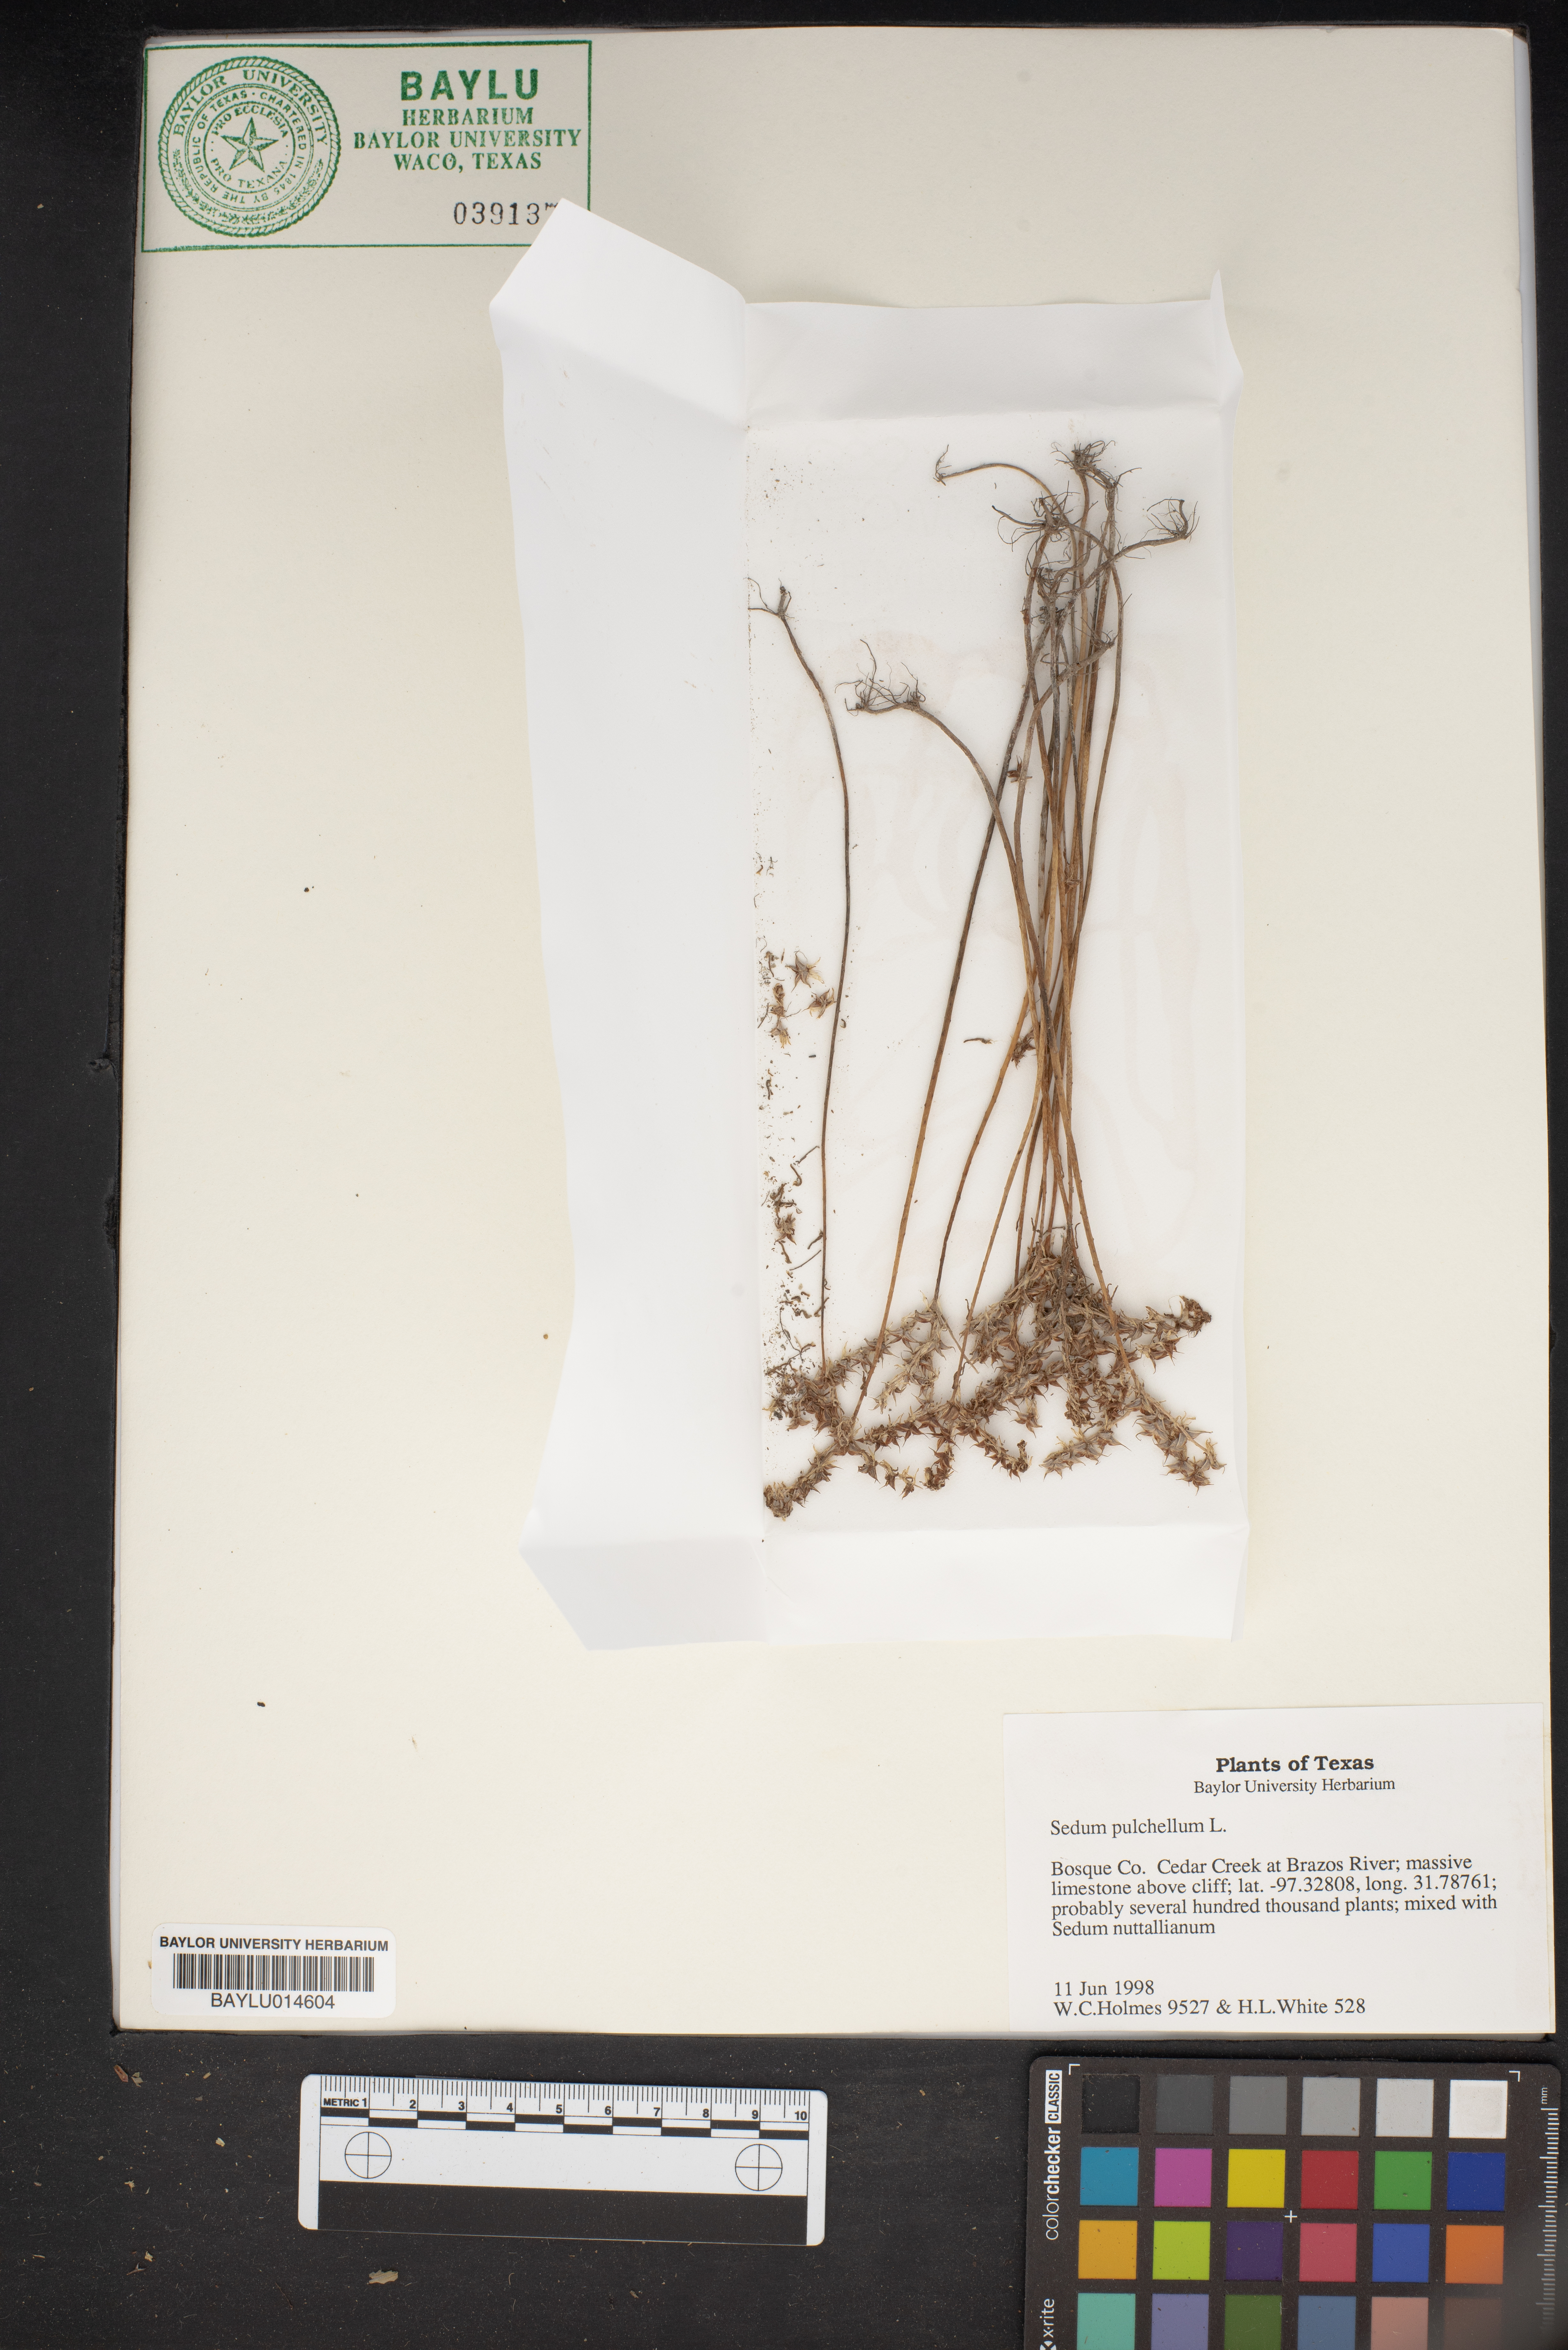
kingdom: Plantae
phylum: Tracheophyta
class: Magnoliopsida
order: Saxifragales
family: Crassulaceae
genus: Sedum
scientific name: Sedum pulchellum
